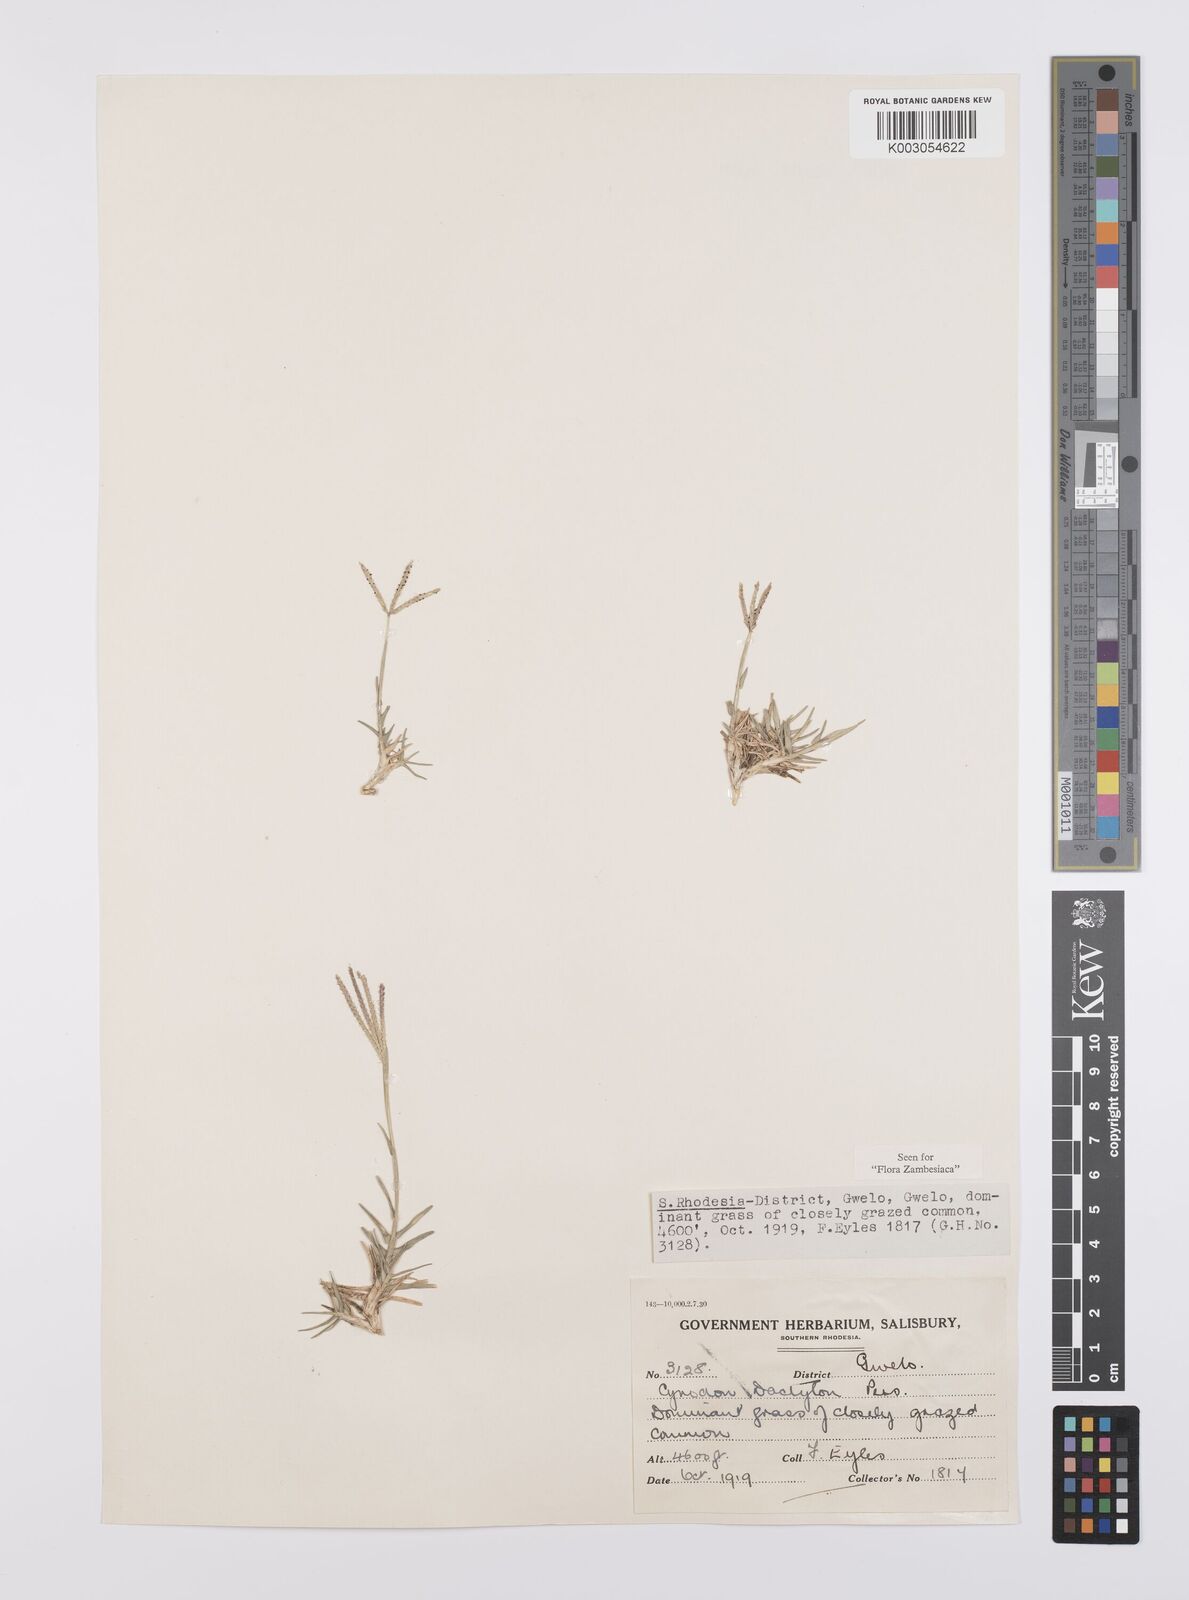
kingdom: Plantae
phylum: Tracheophyta
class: Liliopsida
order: Poales
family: Poaceae
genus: Cynodon
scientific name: Cynodon dactylon
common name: Bermuda grass
